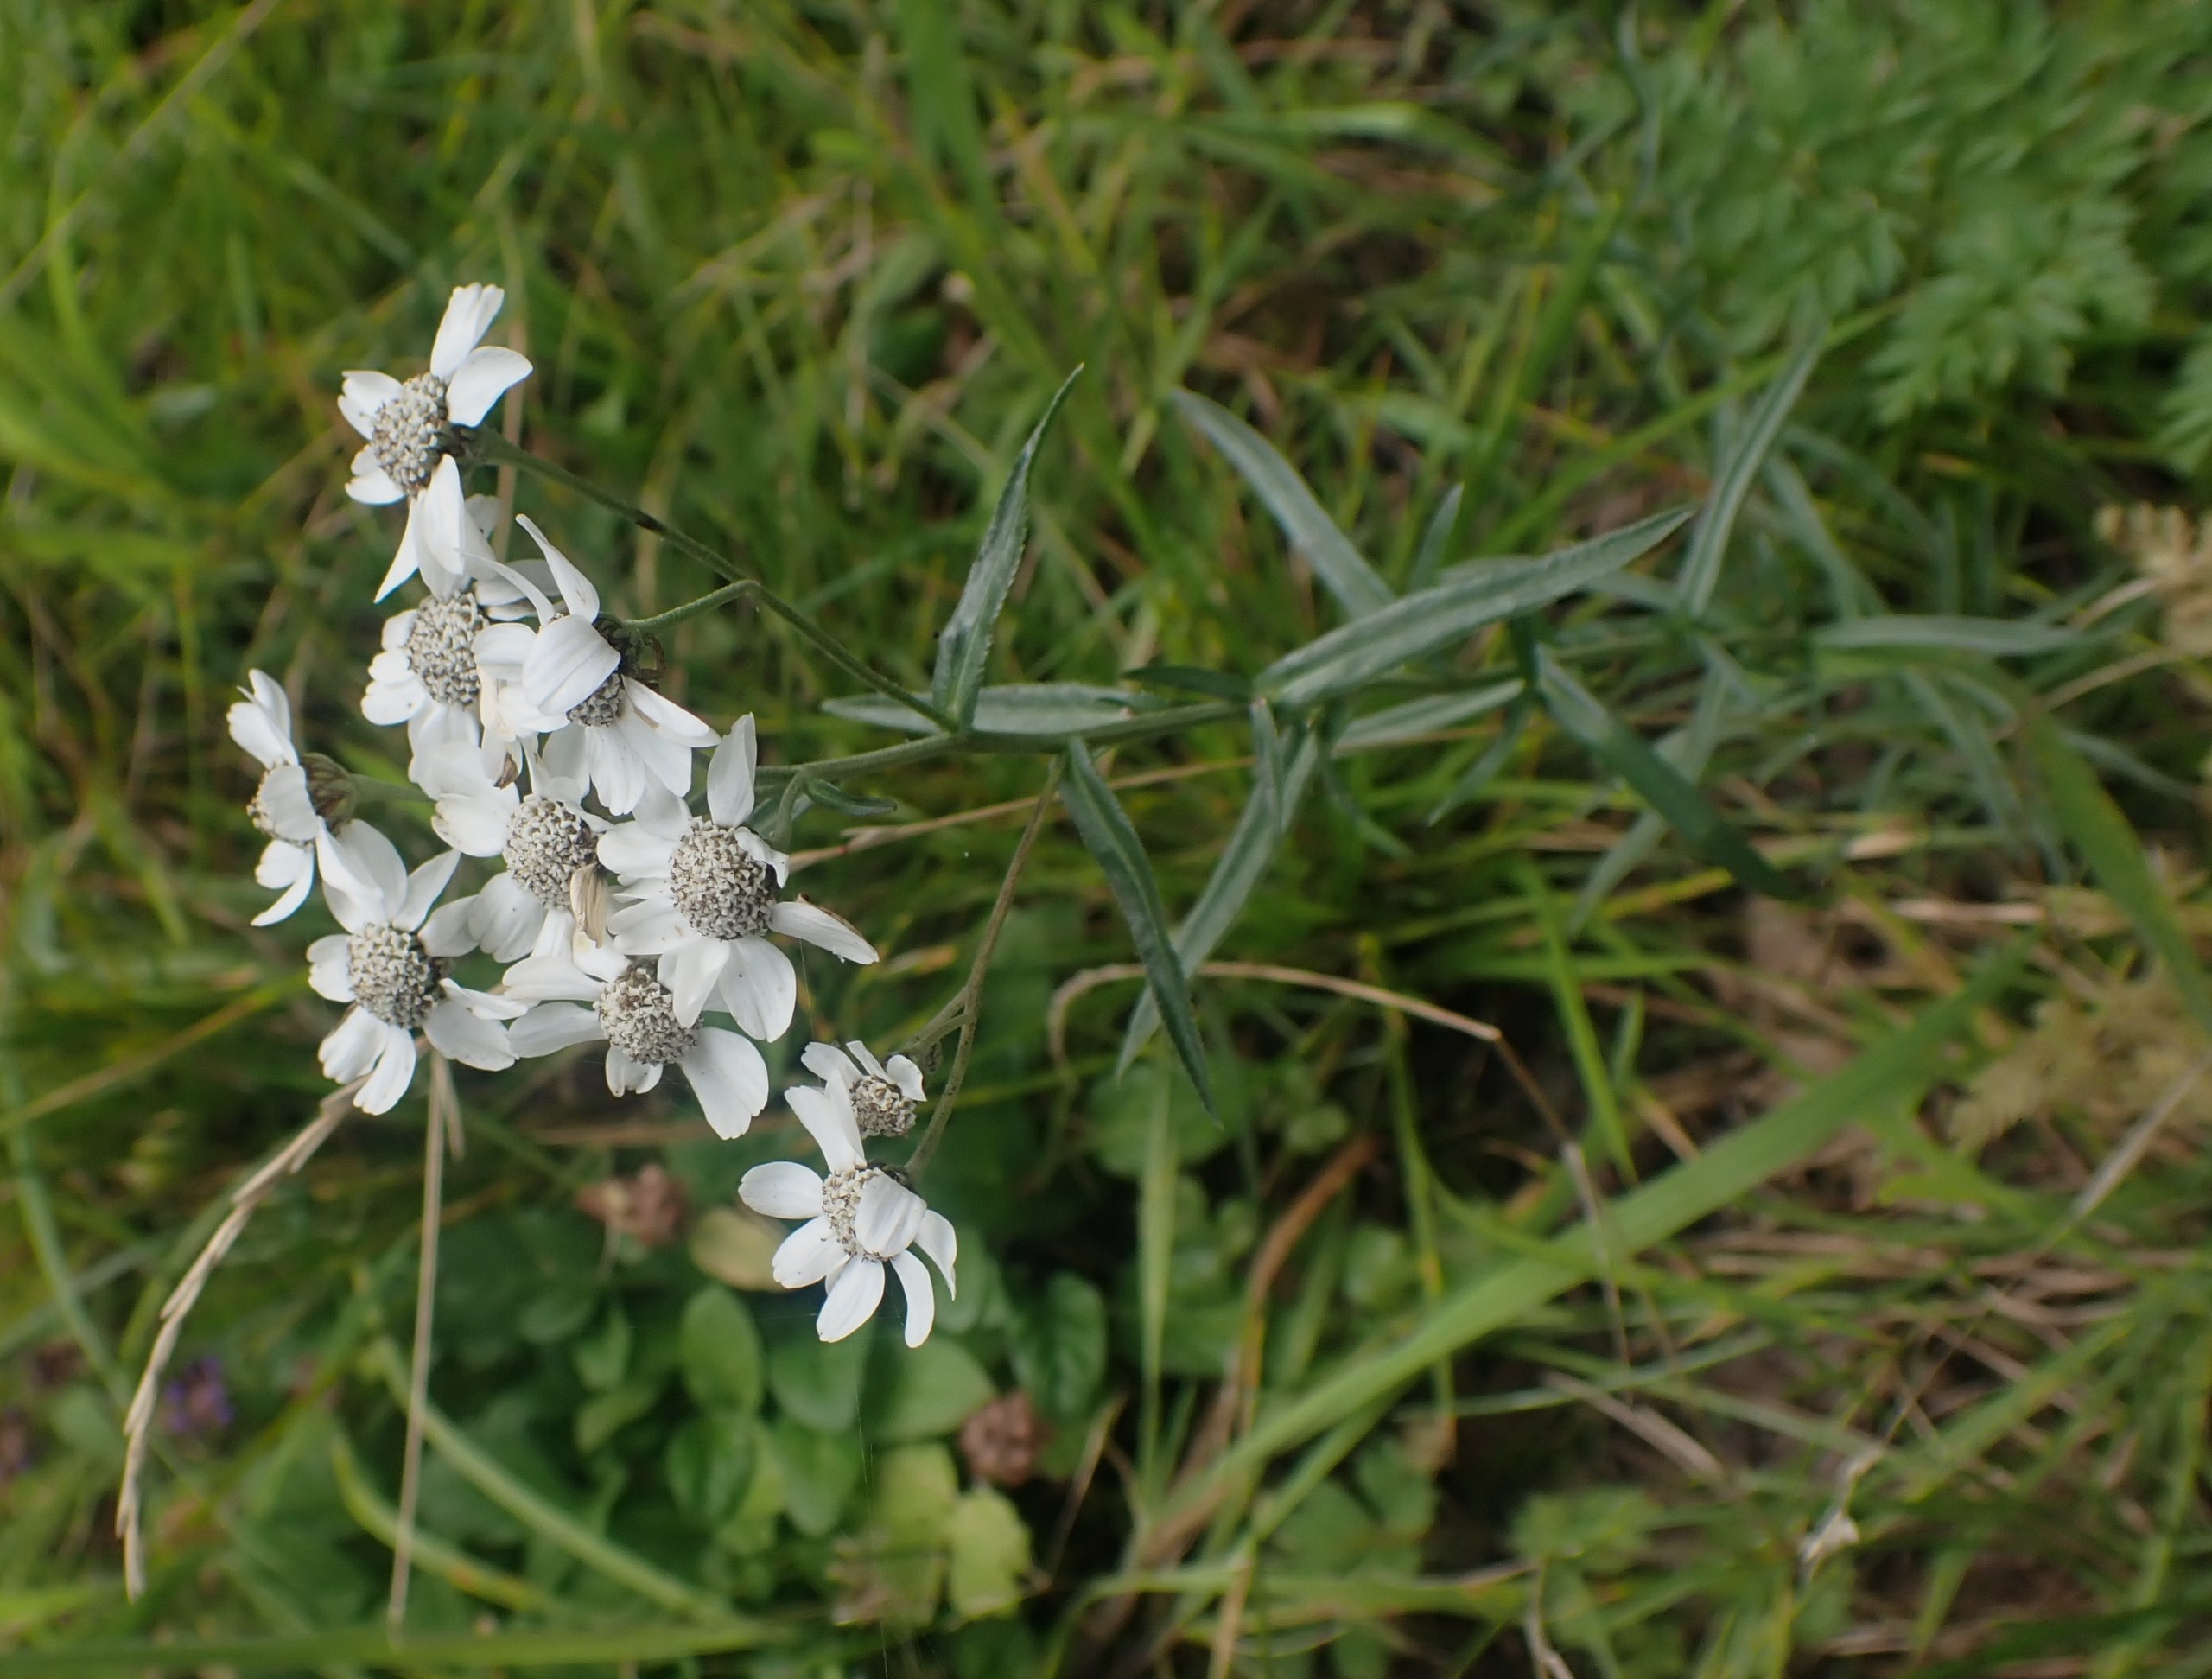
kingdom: Plantae
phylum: Tracheophyta
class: Magnoliopsida
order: Asterales
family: Asteraceae
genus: Achillea
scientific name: Achillea ptarmica
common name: Nyse-røllike
